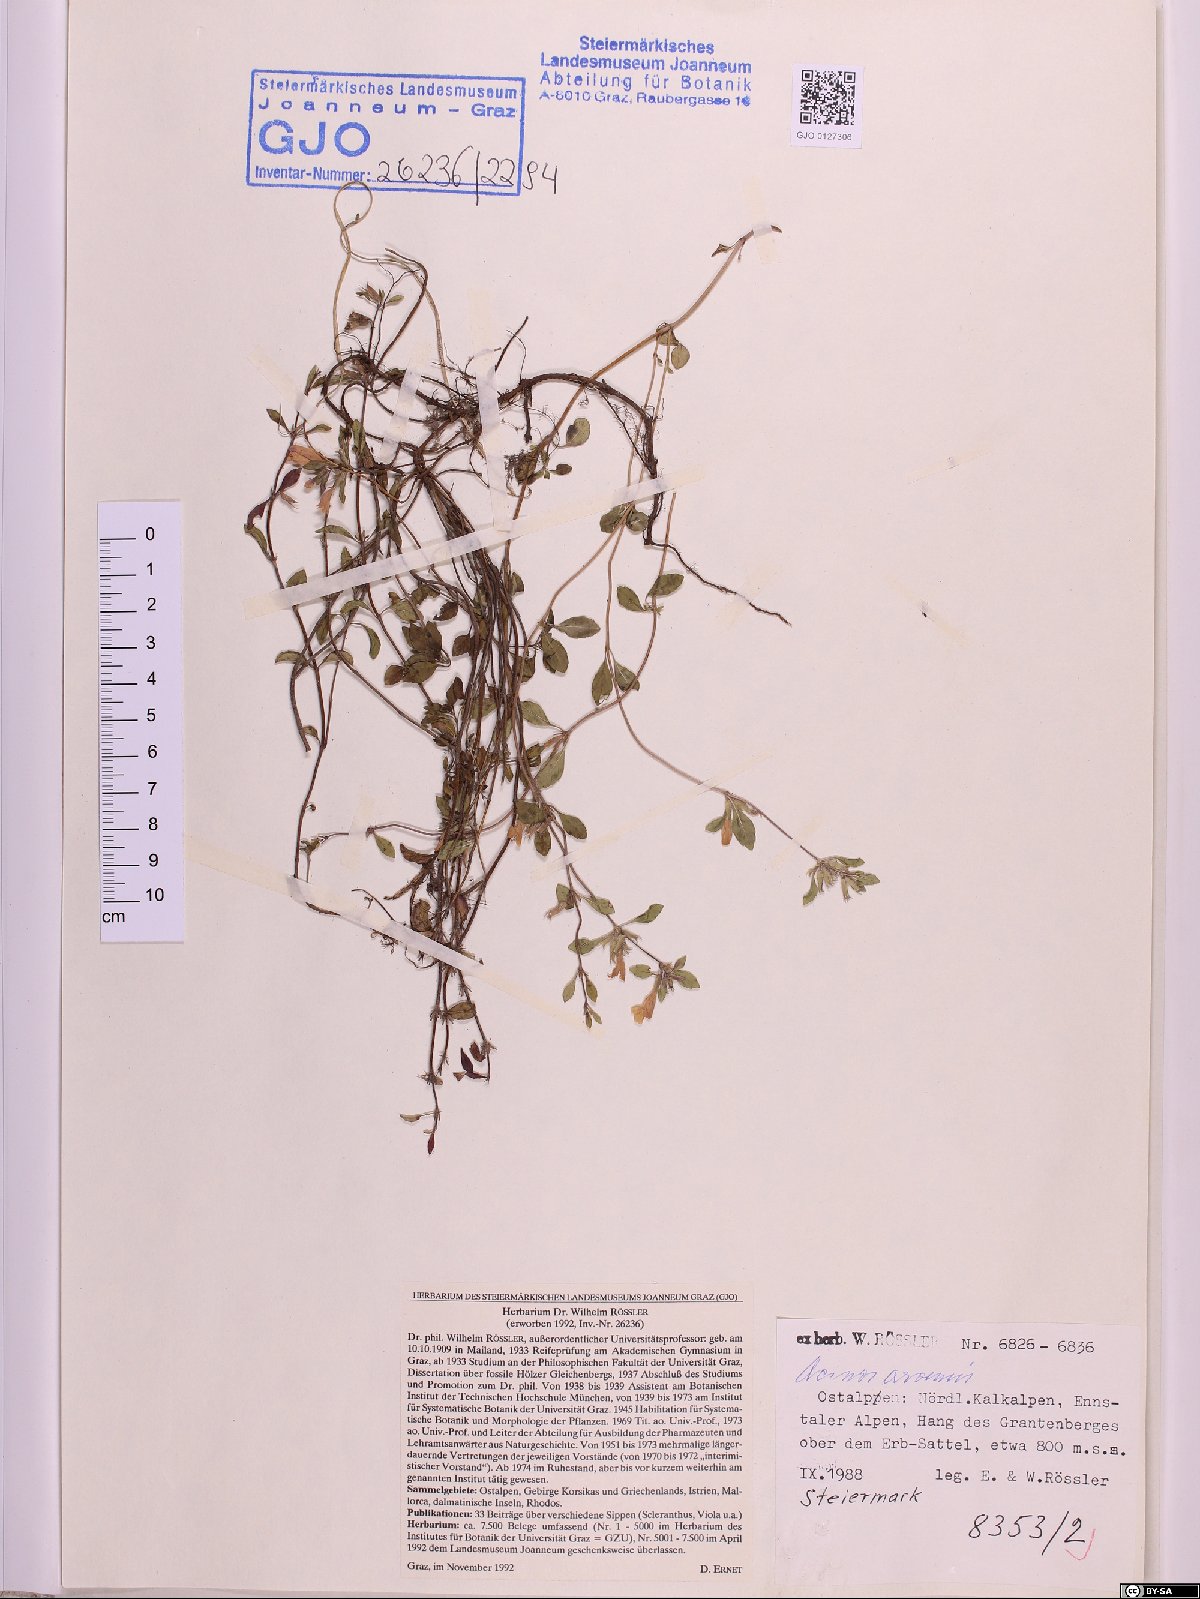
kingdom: Plantae
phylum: Tracheophyta
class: Magnoliopsida
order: Lamiales
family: Lamiaceae
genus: Clinopodium
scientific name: Clinopodium acinos
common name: Basil thyme
